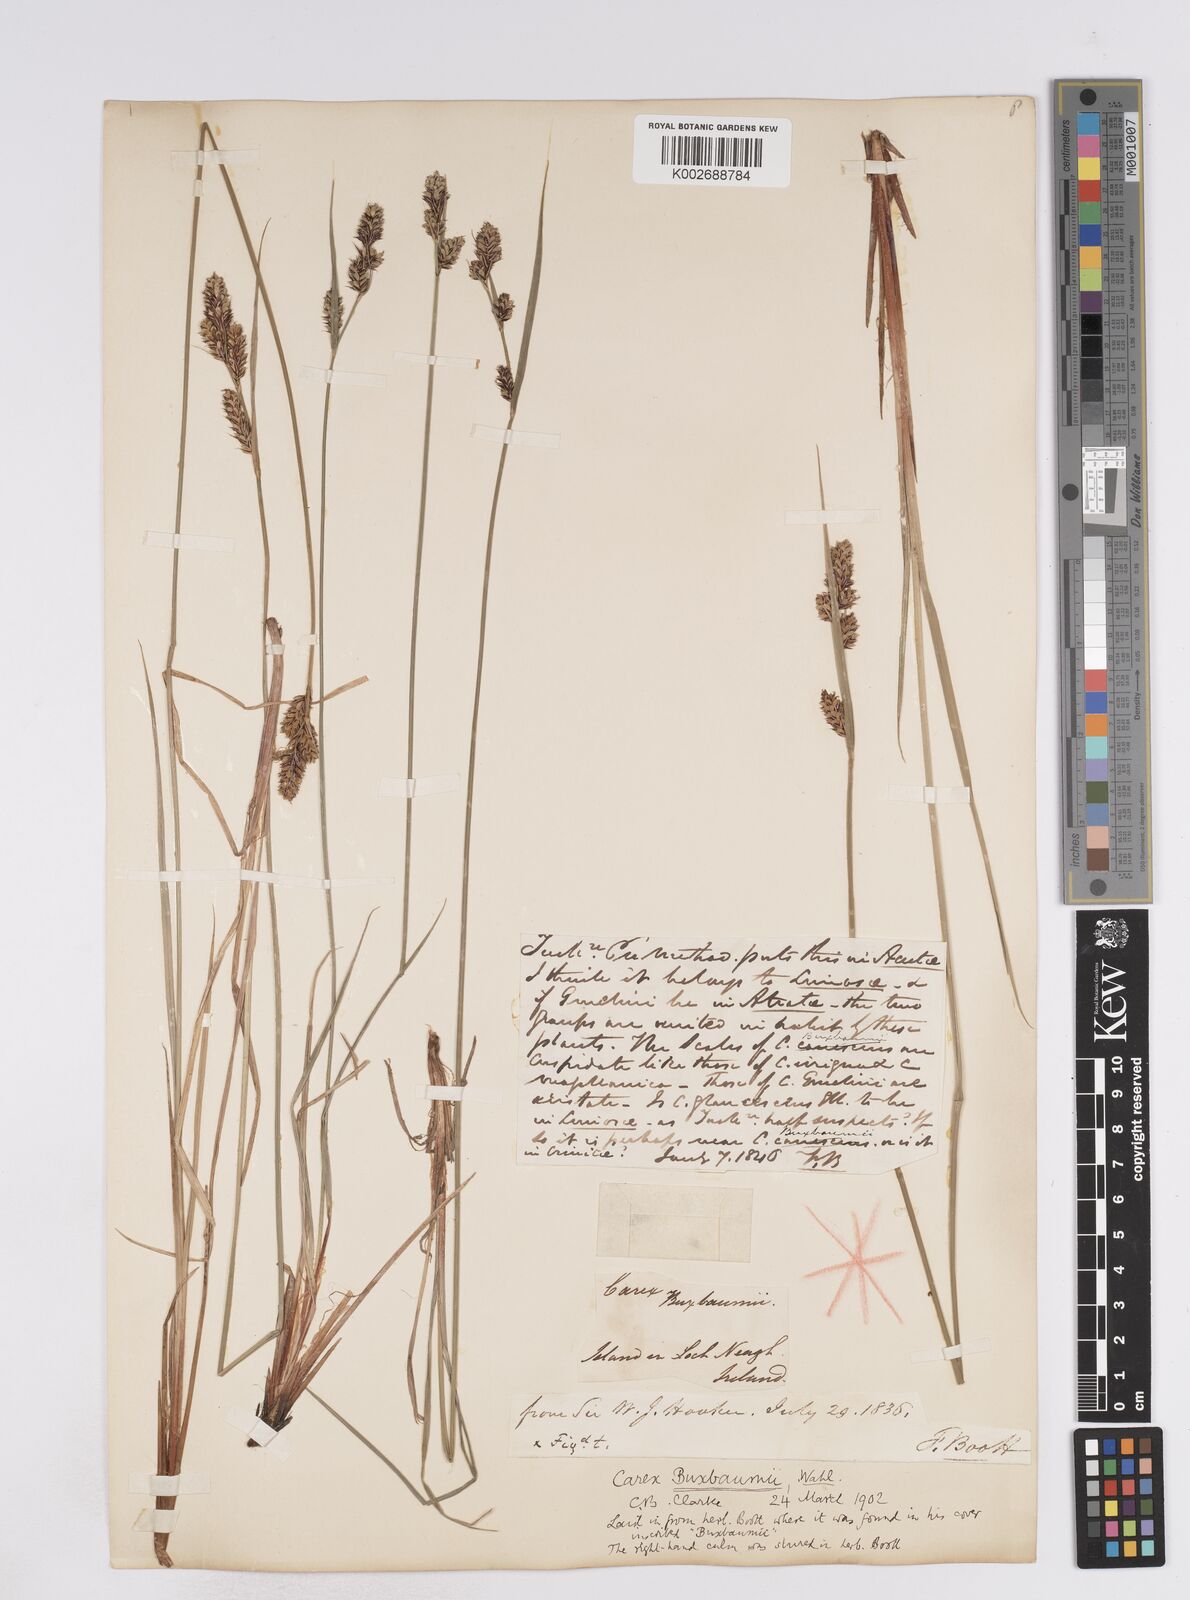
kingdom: Plantae
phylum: Tracheophyta
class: Liliopsida
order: Poales
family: Cyperaceae
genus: Carex
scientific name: Carex buxbaumii
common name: Club sedge
